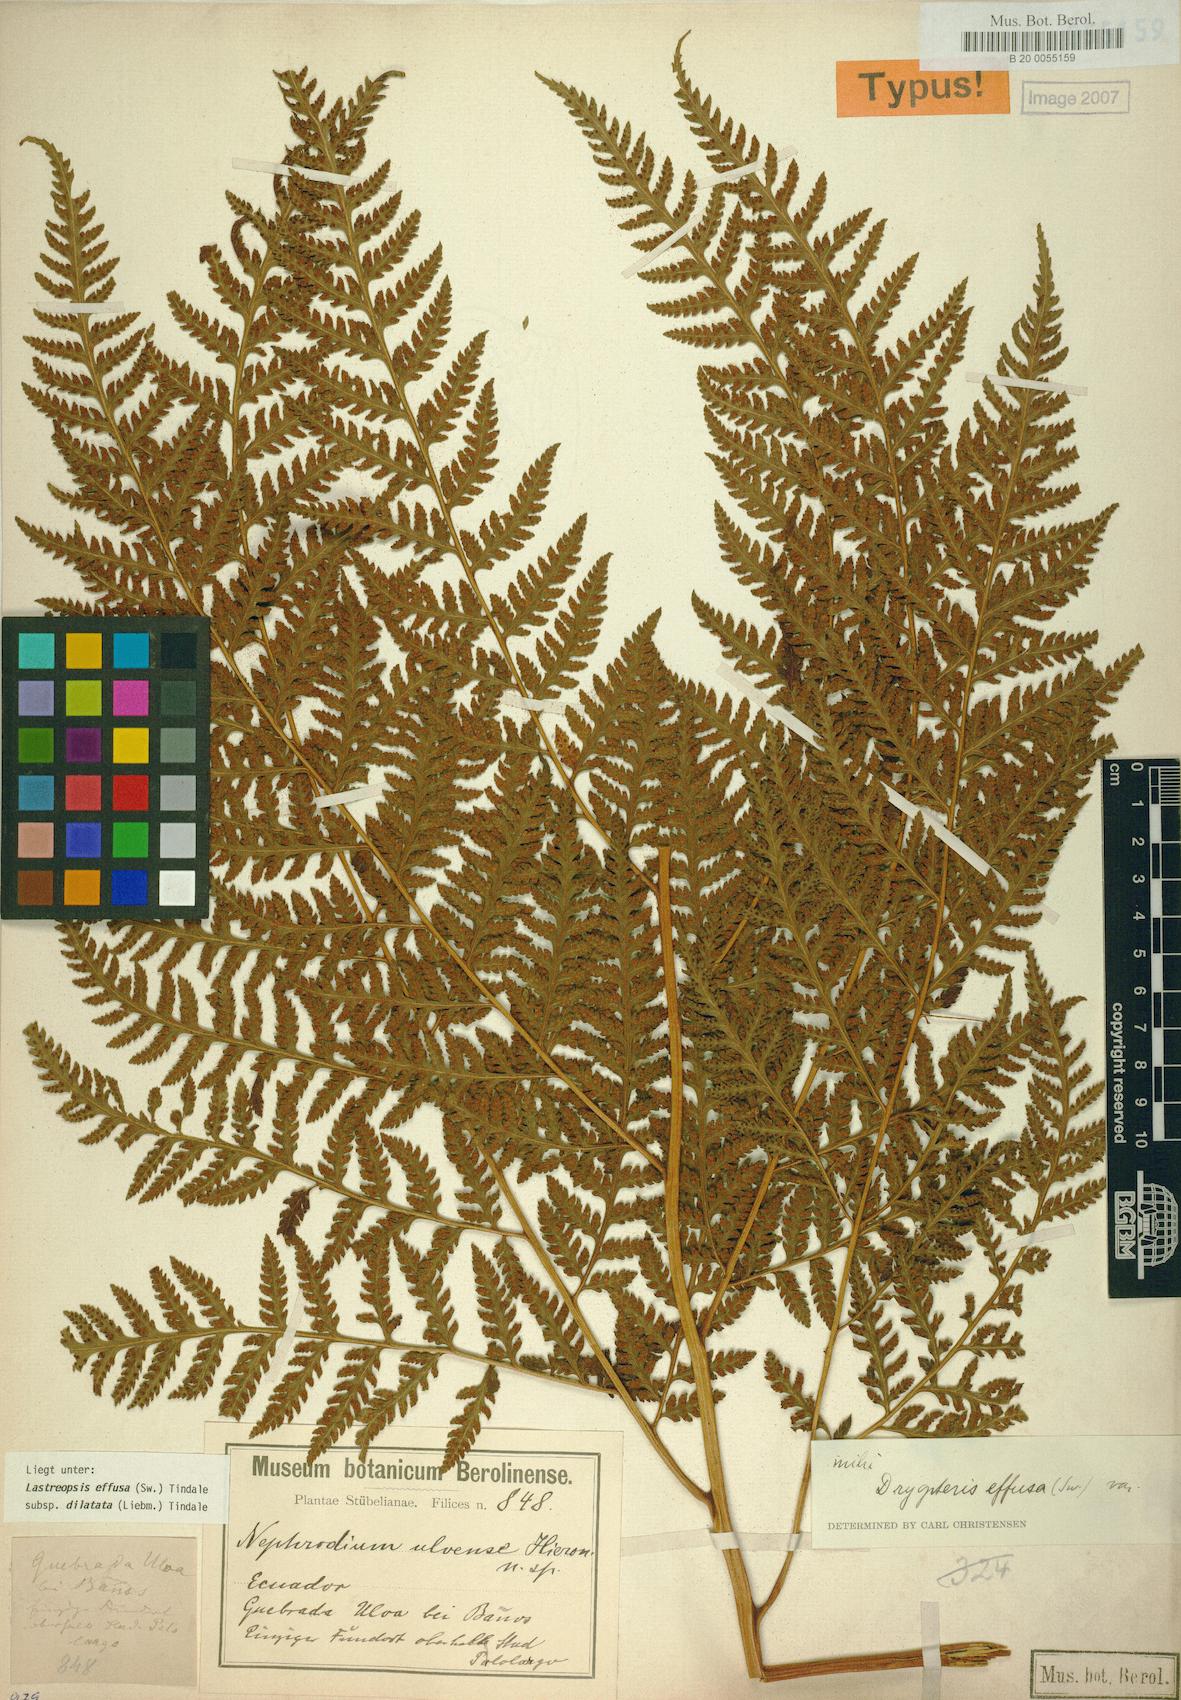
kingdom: Plantae
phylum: Tracheophyta
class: Polypodiopsida
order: Polypodiales
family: Dryopteridaceae
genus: Parapolystichum
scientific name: Parapolystichum effusum
